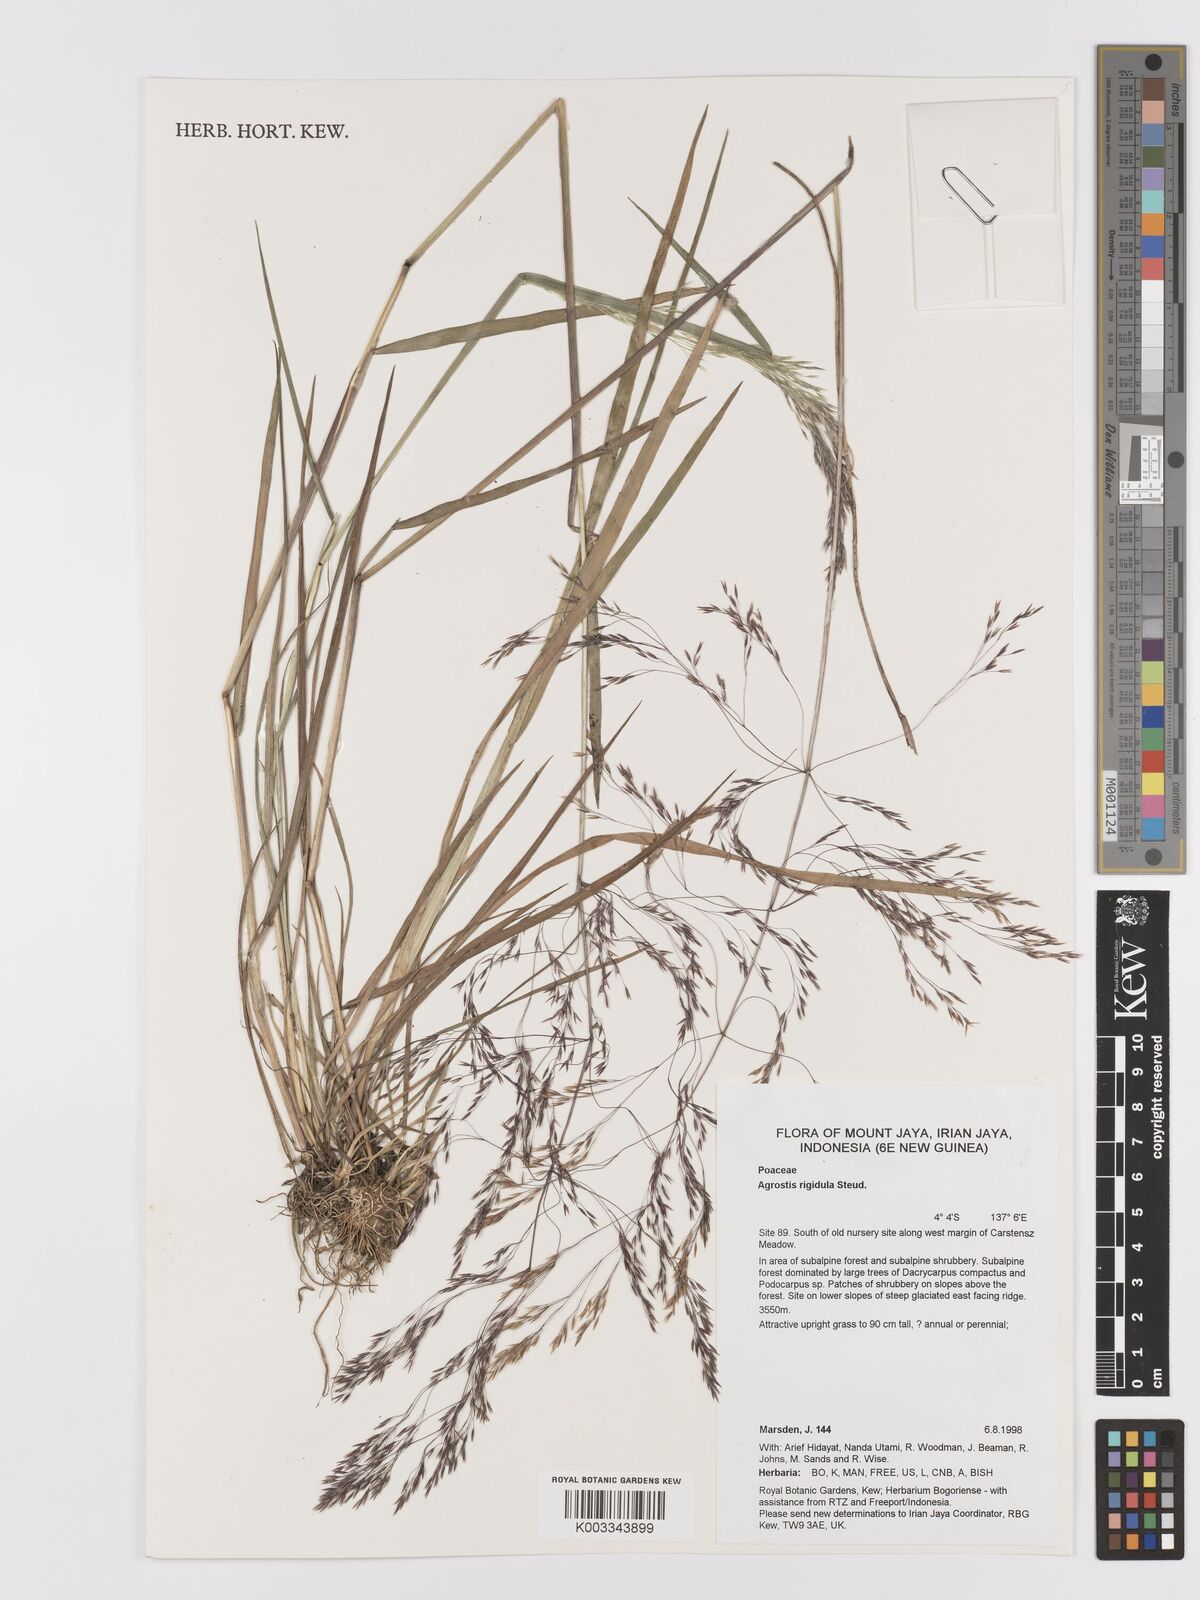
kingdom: Plantae
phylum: Tracheophyta
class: Liliopsida
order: Poales
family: Poaceae
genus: Agrostis
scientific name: Agrostis infirma
